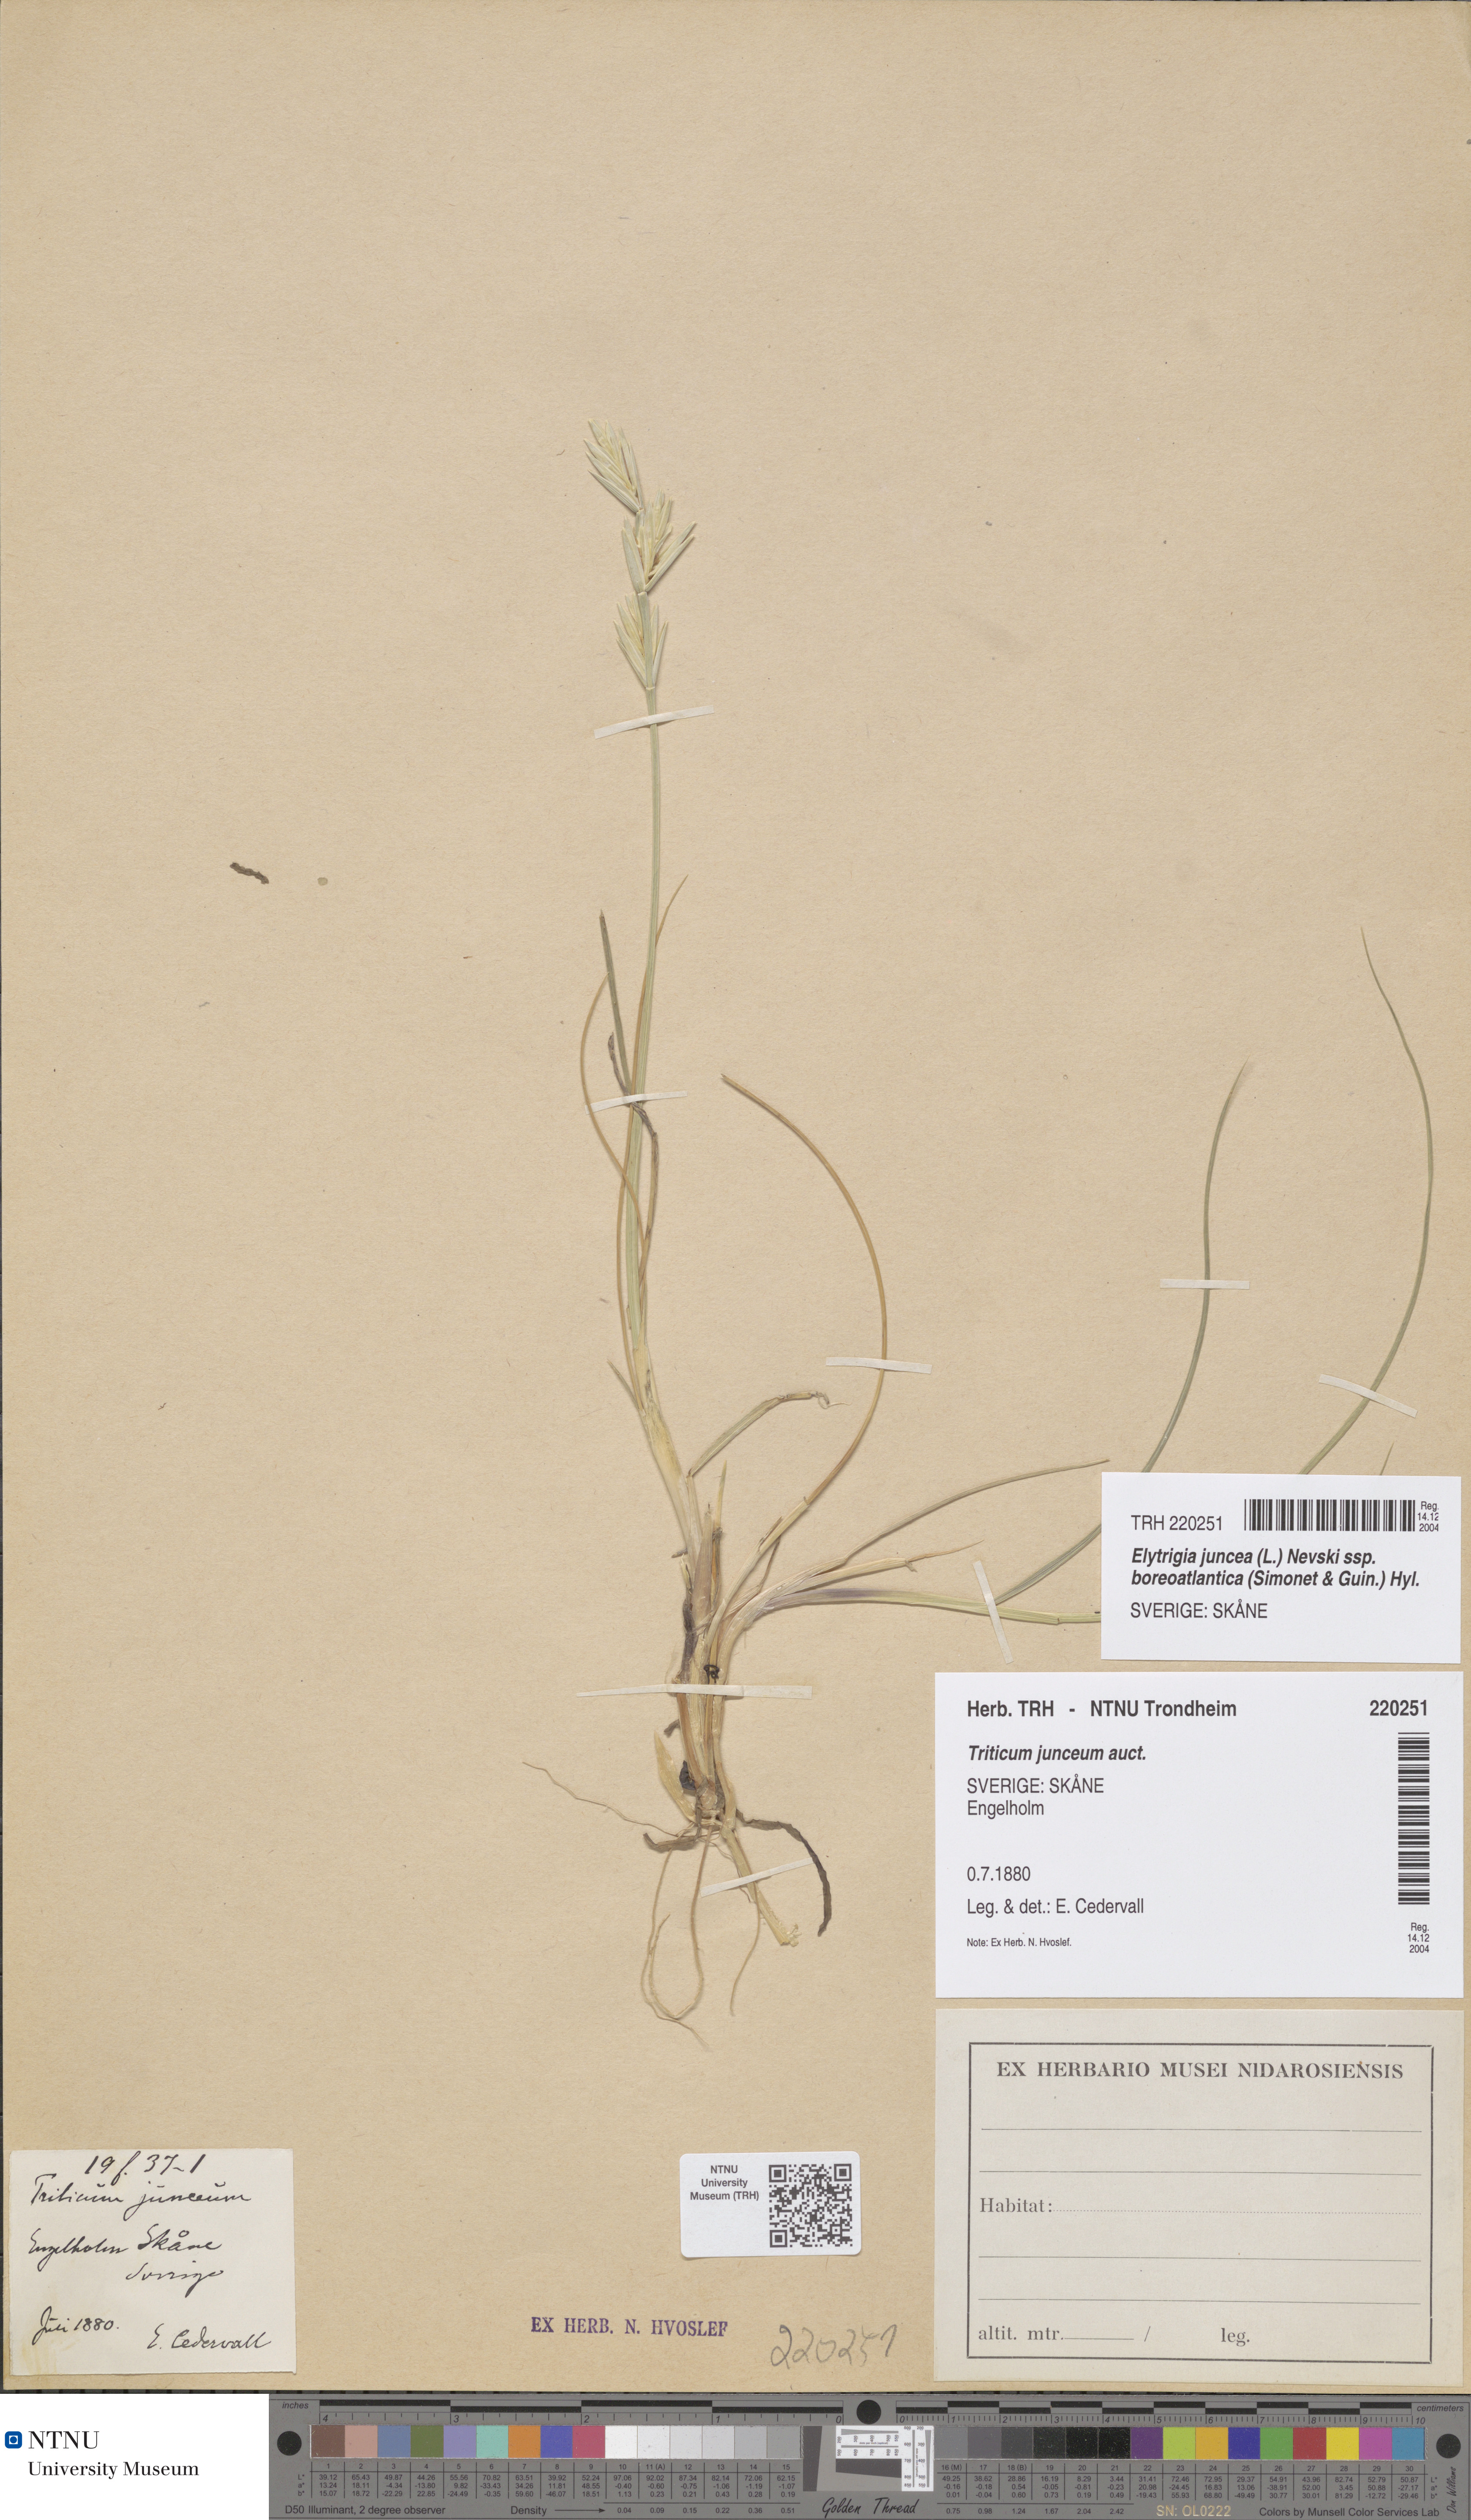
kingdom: Plantae
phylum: Tracheophyta
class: Liliopsida
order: Poales
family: Poaceae
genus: Thinopyrum
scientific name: Thinopyrum junceiforme
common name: Sea couch
